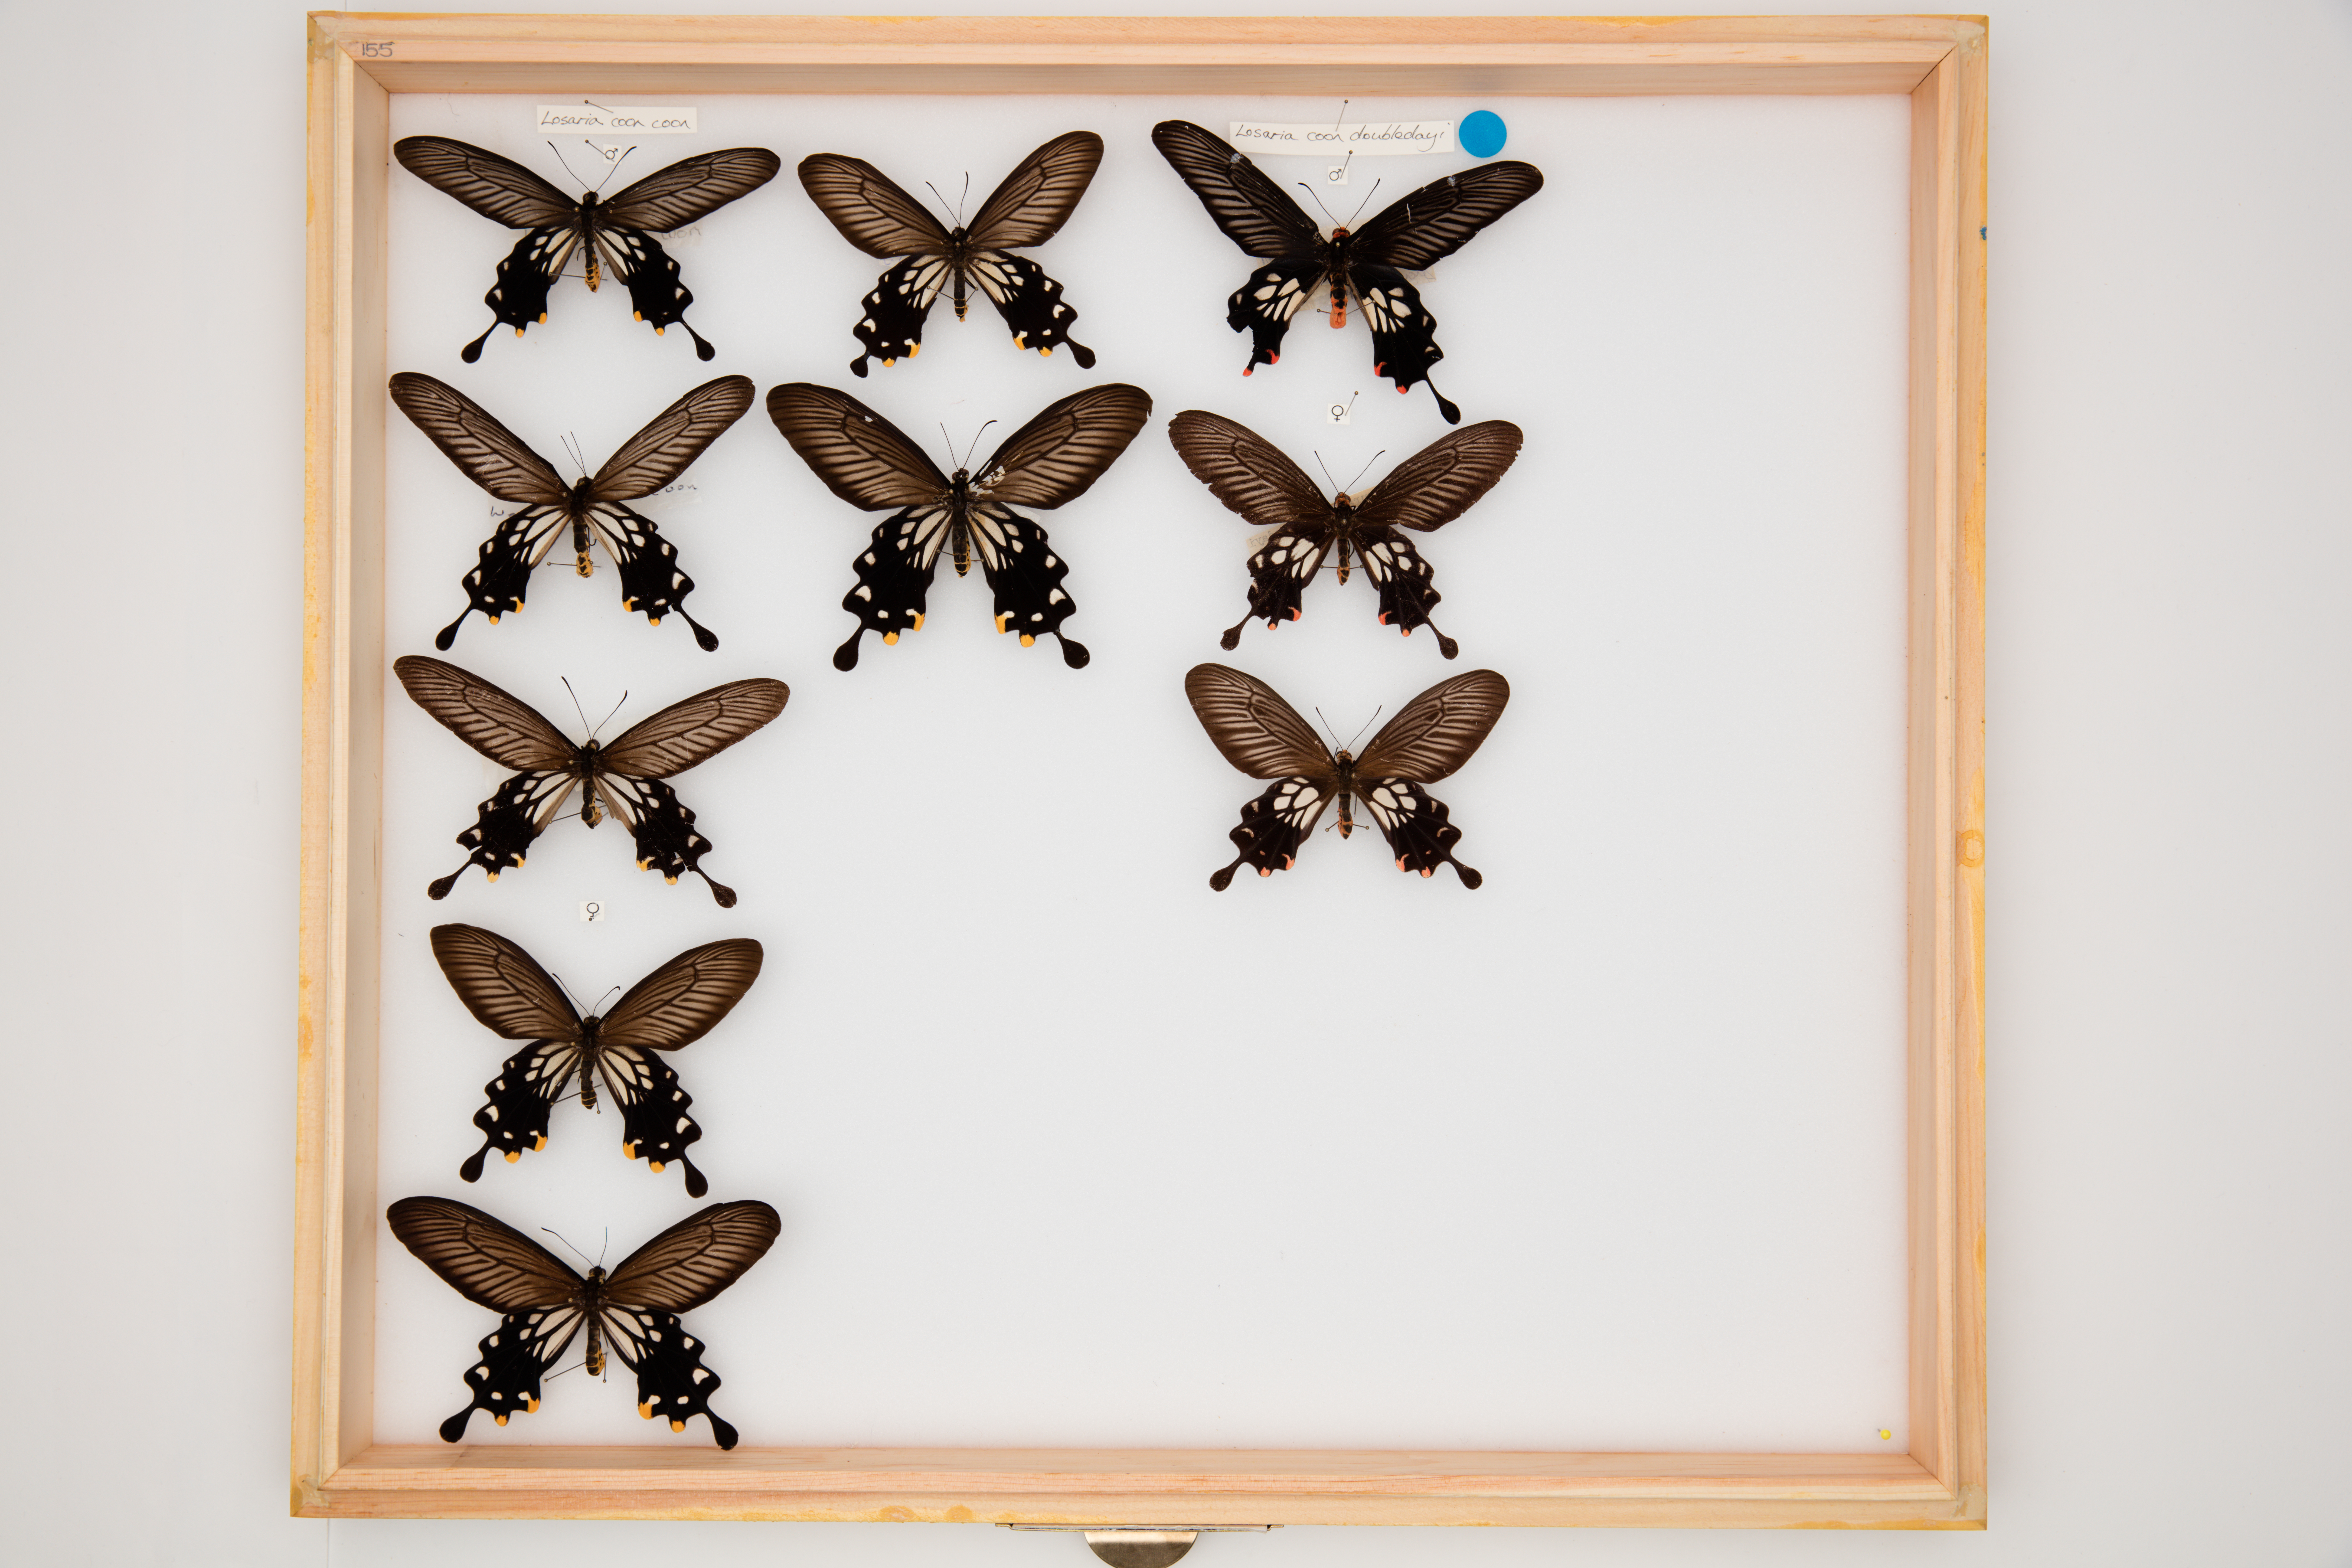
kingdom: Animalia
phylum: Arthropoda
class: Insecta
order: Lepidoptera
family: Papilionidae
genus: Losaria
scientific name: Losaria coon
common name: Common clubtail
